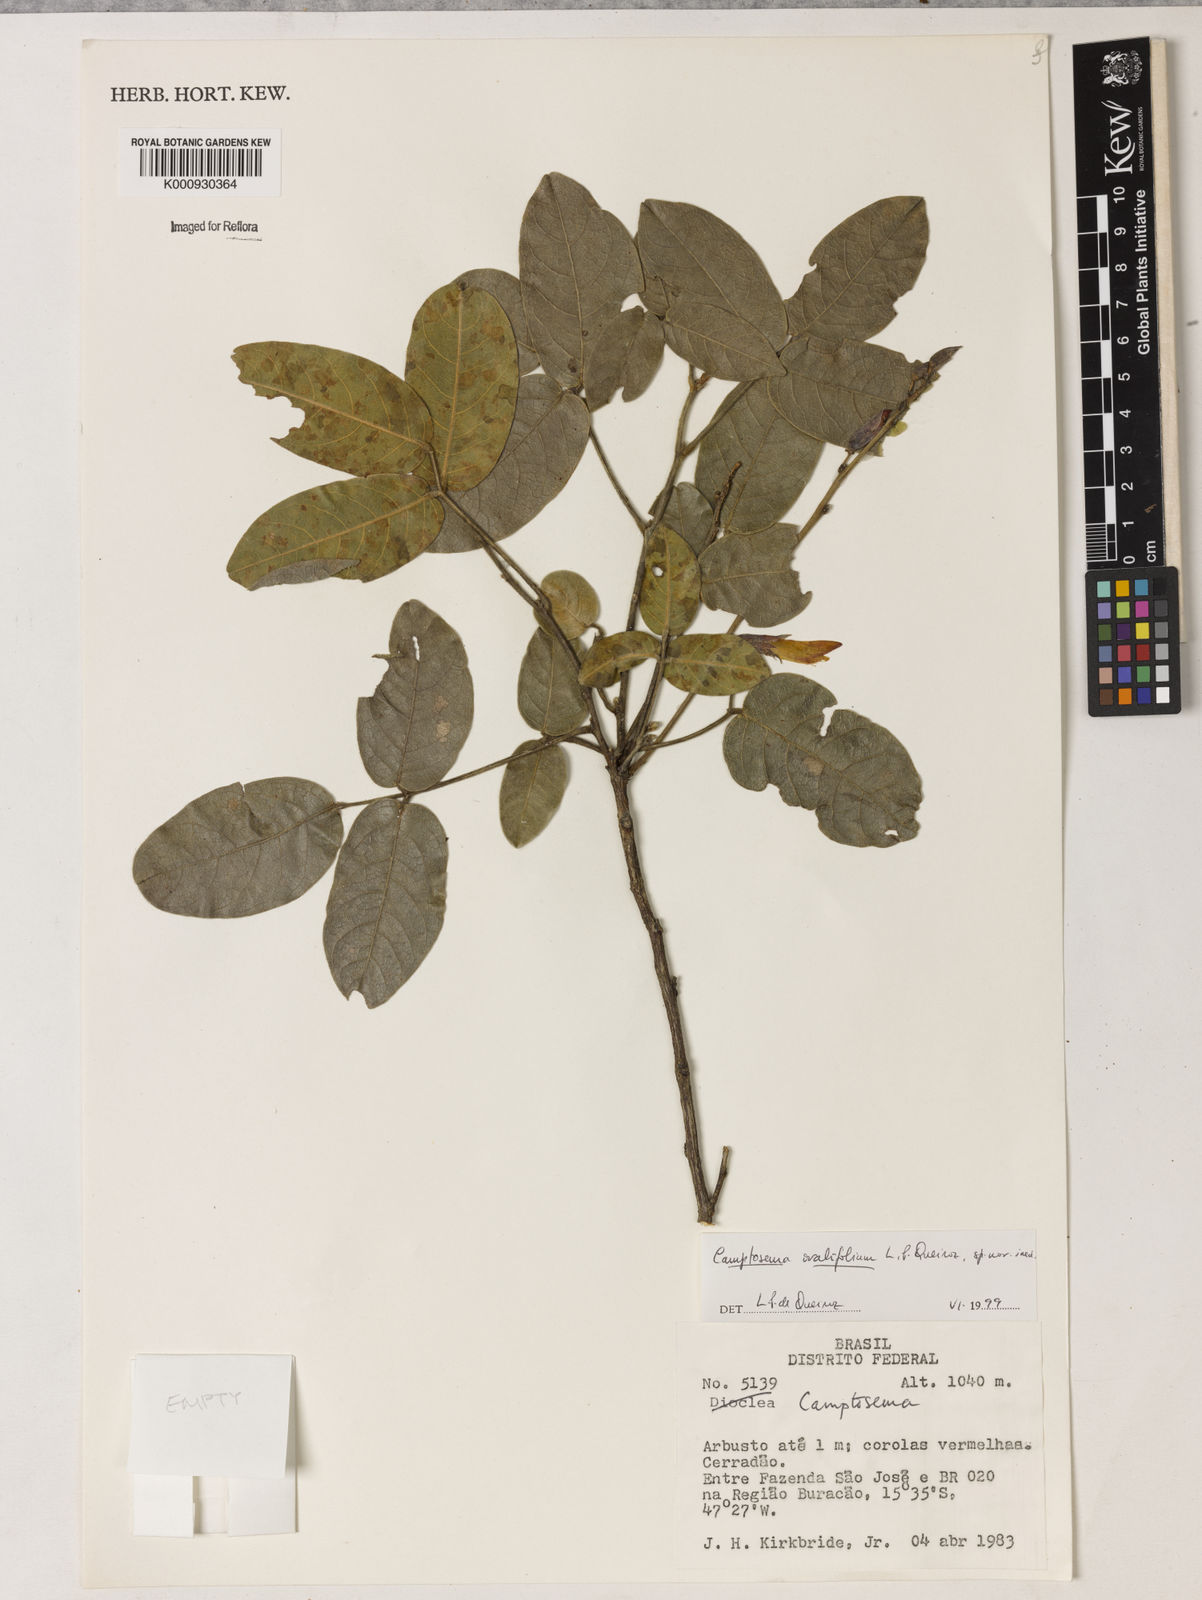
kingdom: Plantae
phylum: Tracheophyta
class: Magnoliopsida
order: Fabales
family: Fabaceae
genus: Camptosema
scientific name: Camptosema
